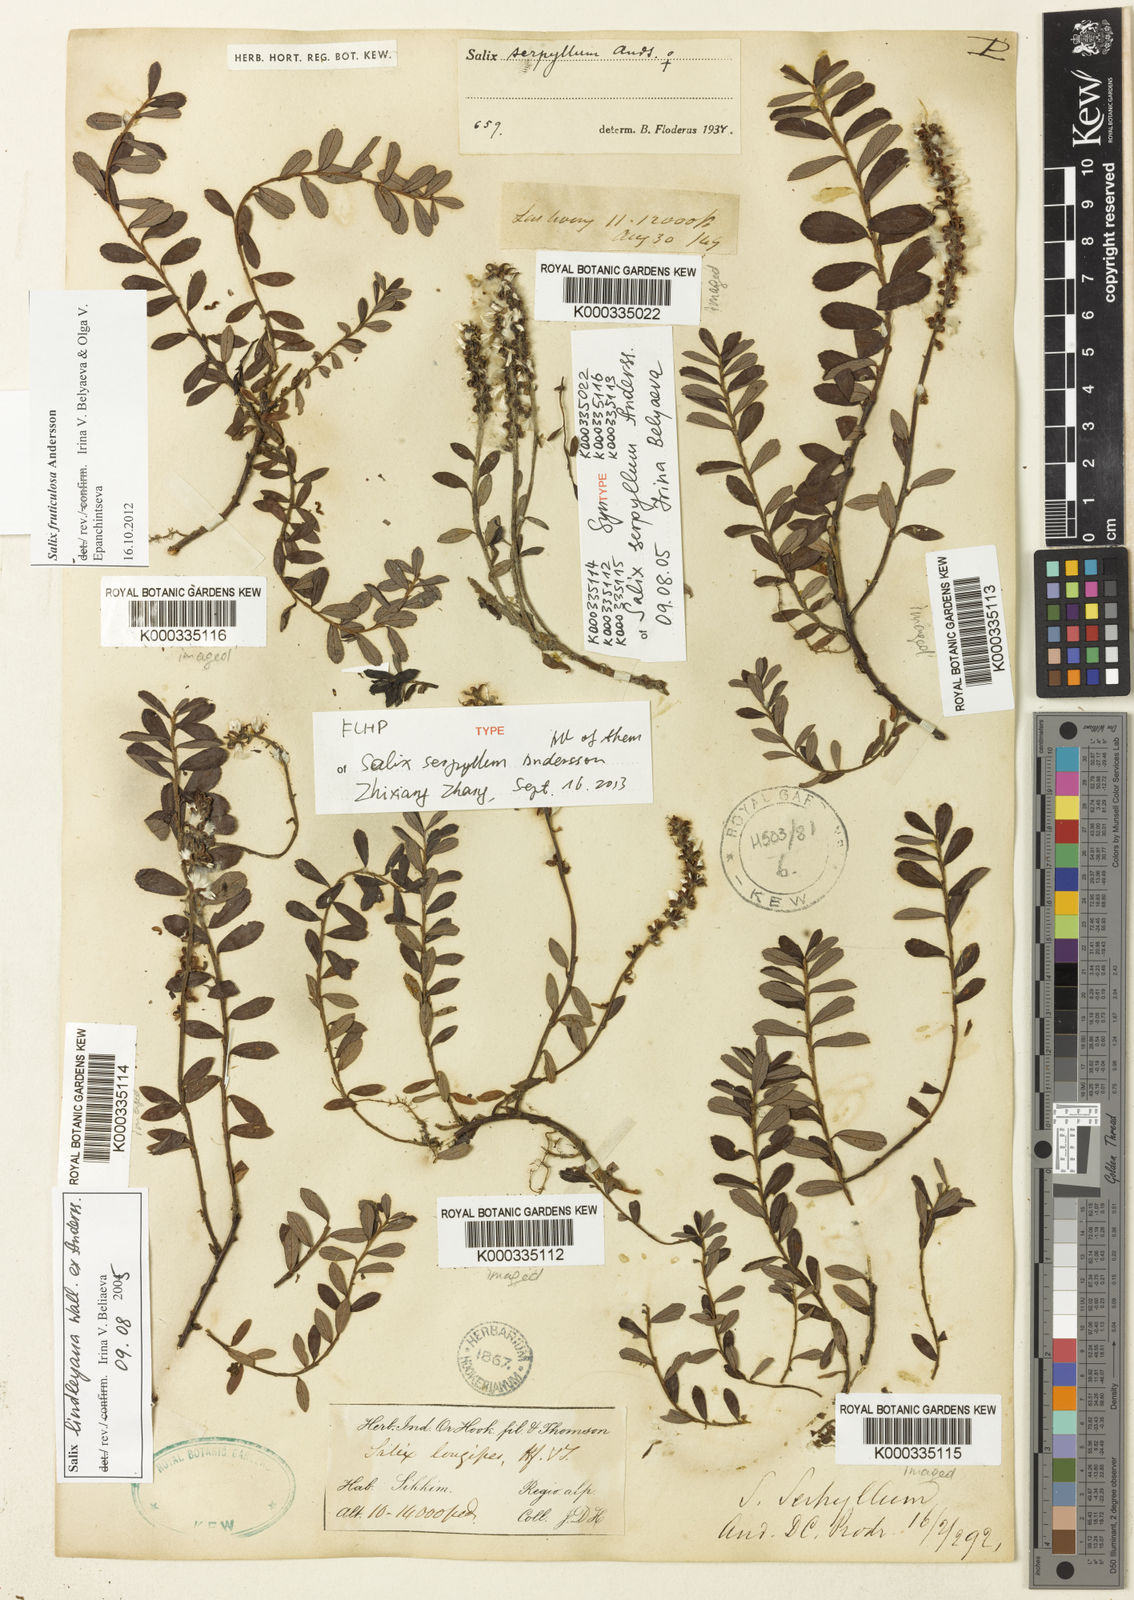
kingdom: Plantae
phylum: Tracheophyta
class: Magnoliopsida
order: Malpighiales
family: Salicaceae
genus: Salix
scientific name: Salix fruticulosa
